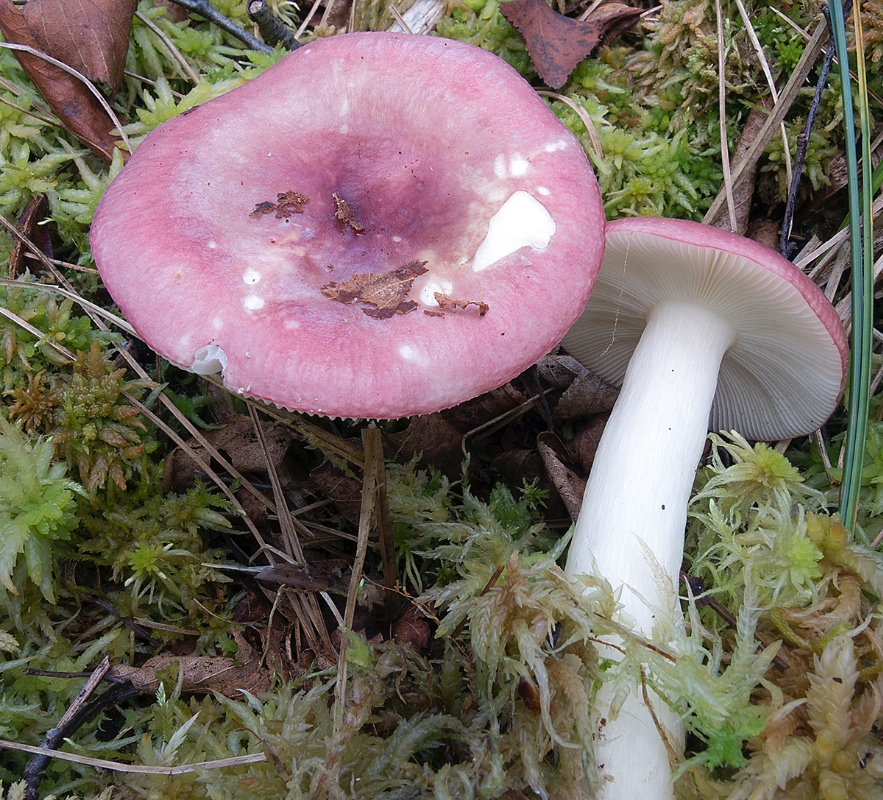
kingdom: Fungi
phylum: Basidiomycota
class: Agaricomycetes
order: Russulales
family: Russulaceae
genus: Russula
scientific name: Russula aquosa
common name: vand-skørhat
